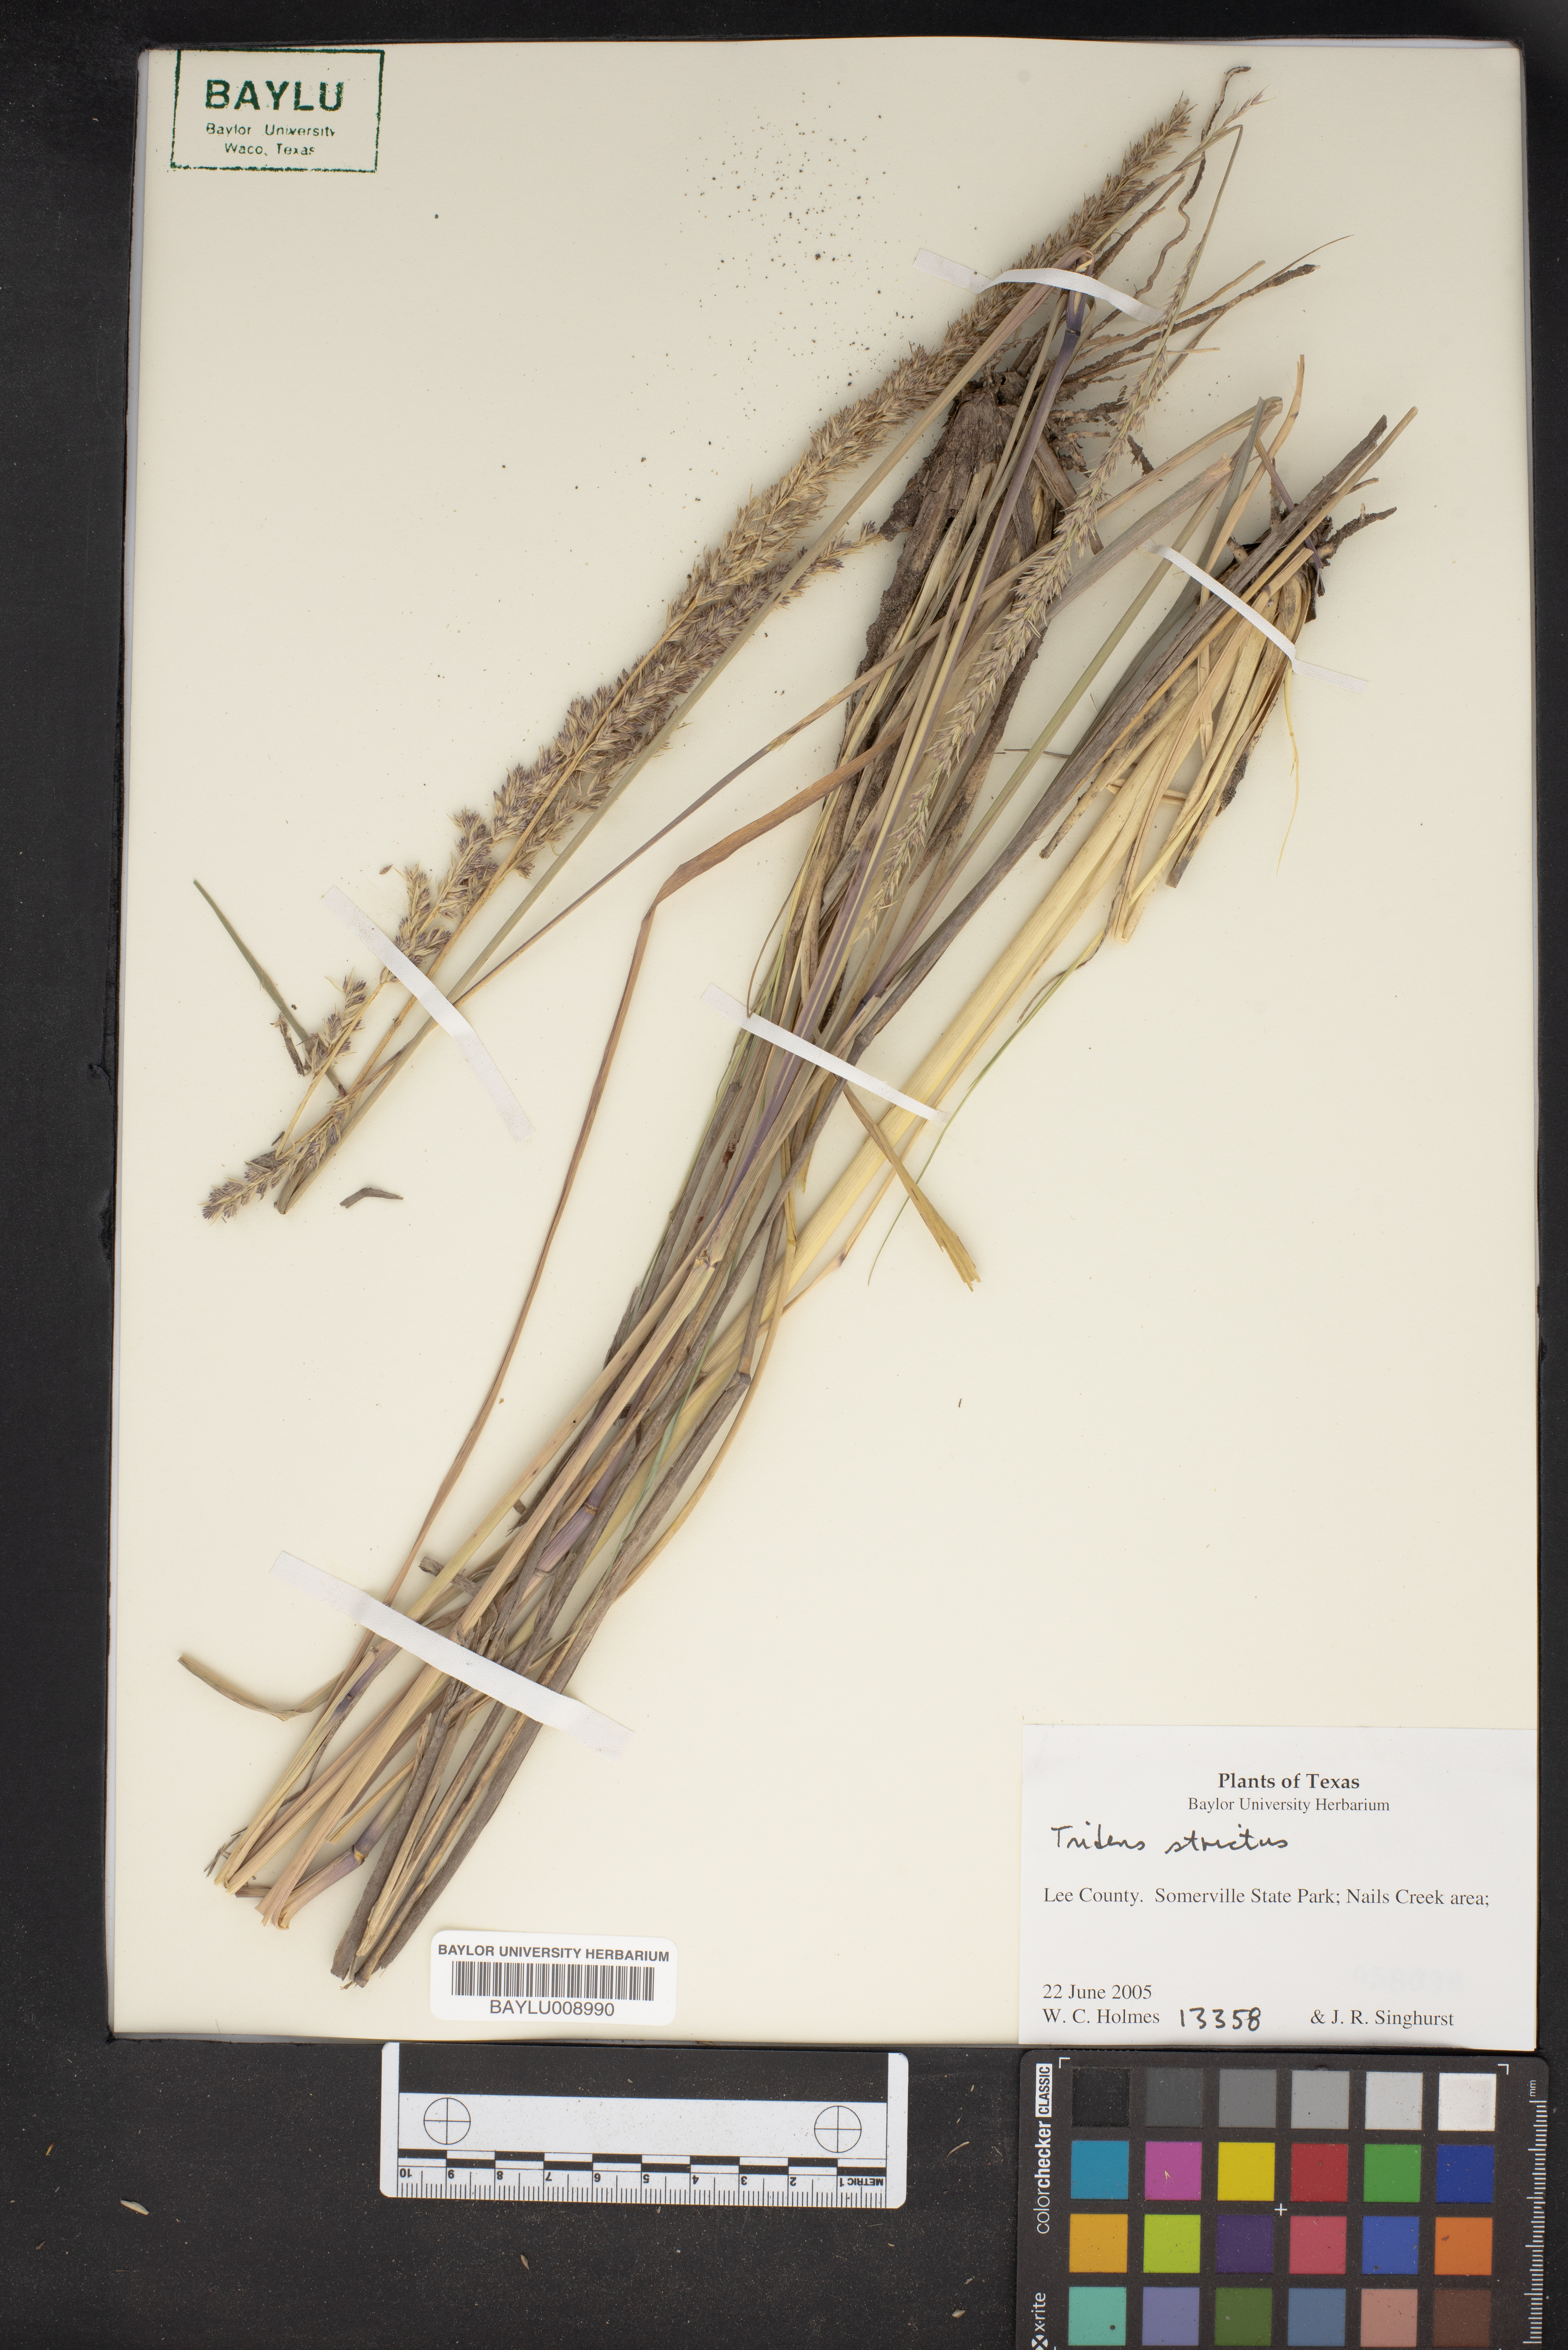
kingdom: Plantae
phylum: Tracheophyta
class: Liliopsida
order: Poales
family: Poaceae
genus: Tridens
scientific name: Tridens strictus
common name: Long-spike tridens
